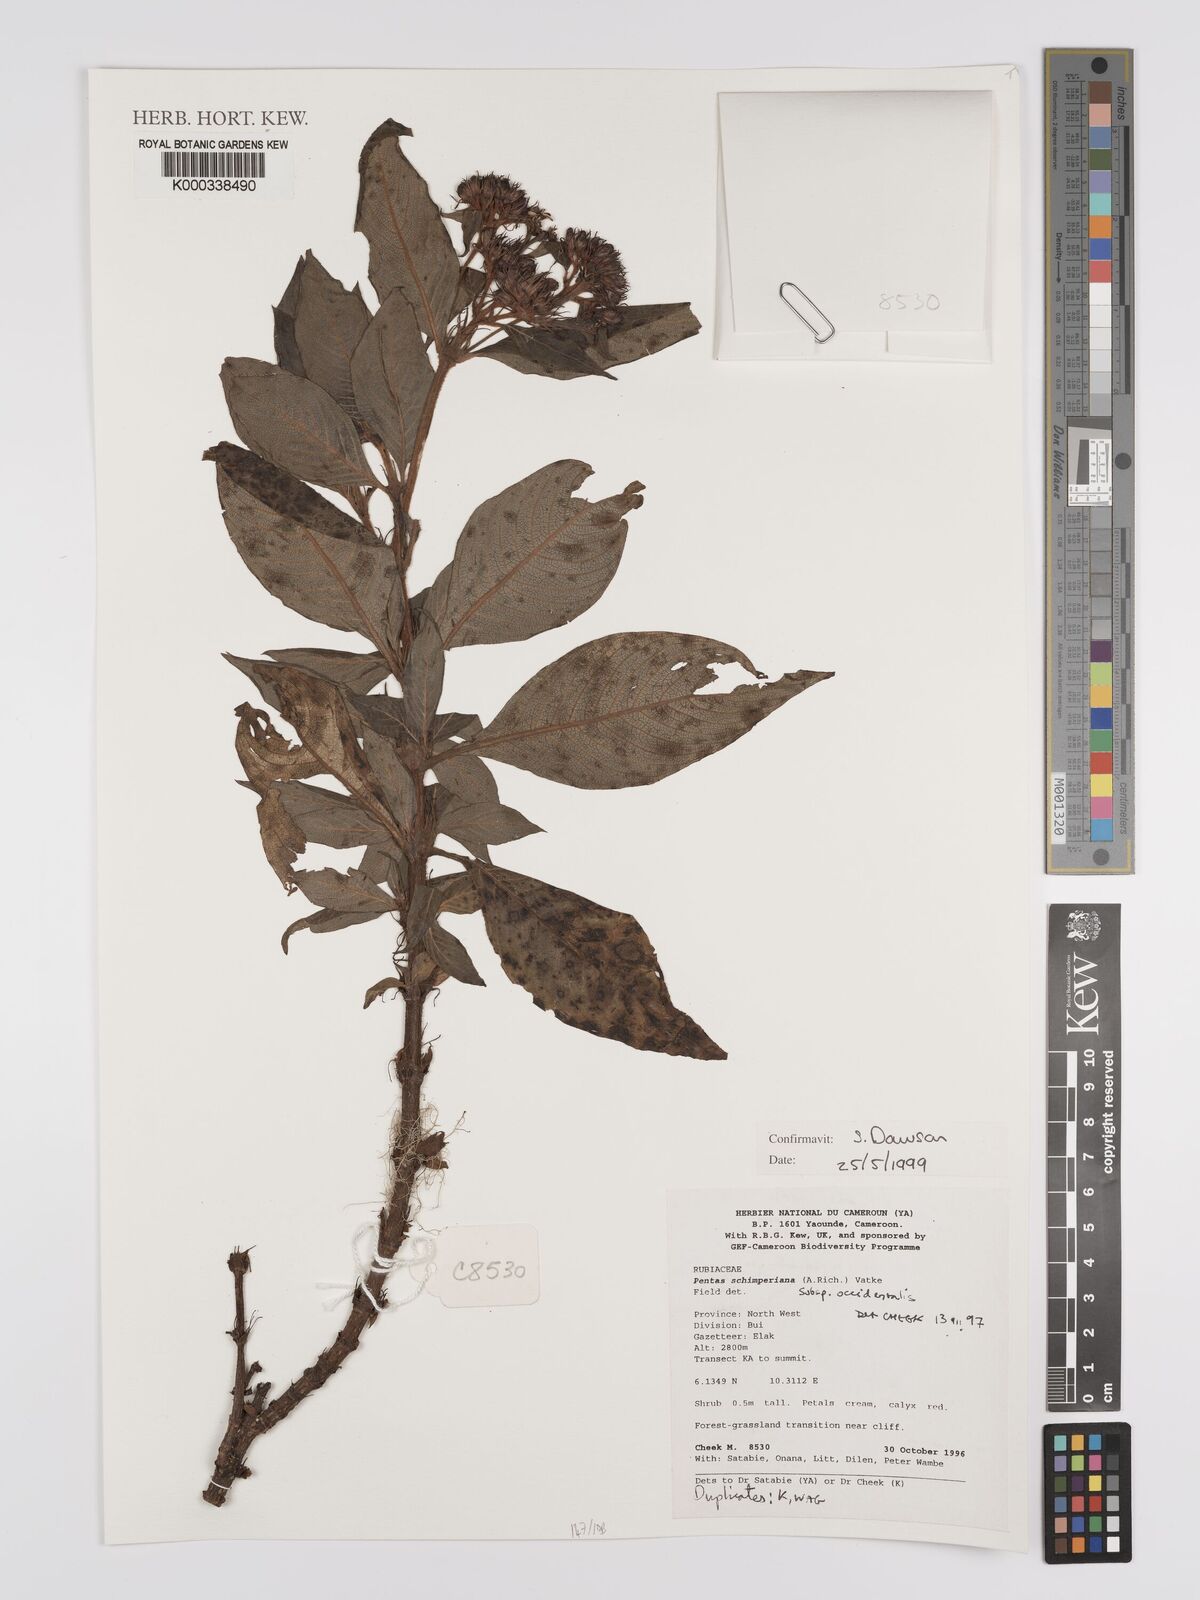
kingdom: Plantae
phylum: Tracheophyta
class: Magnoliopsida
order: Gentianales
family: Rubiaceae
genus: Phyllopentas
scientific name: Phyllopentas schimperi
